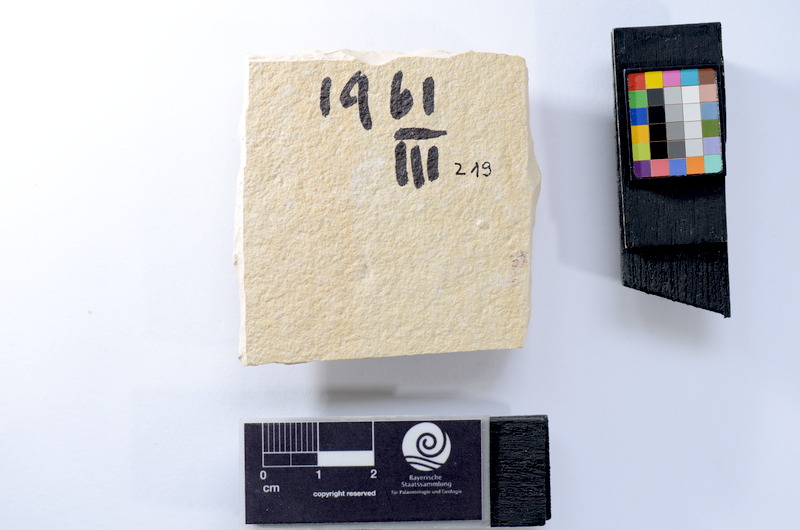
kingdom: Animalia
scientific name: Animalia
